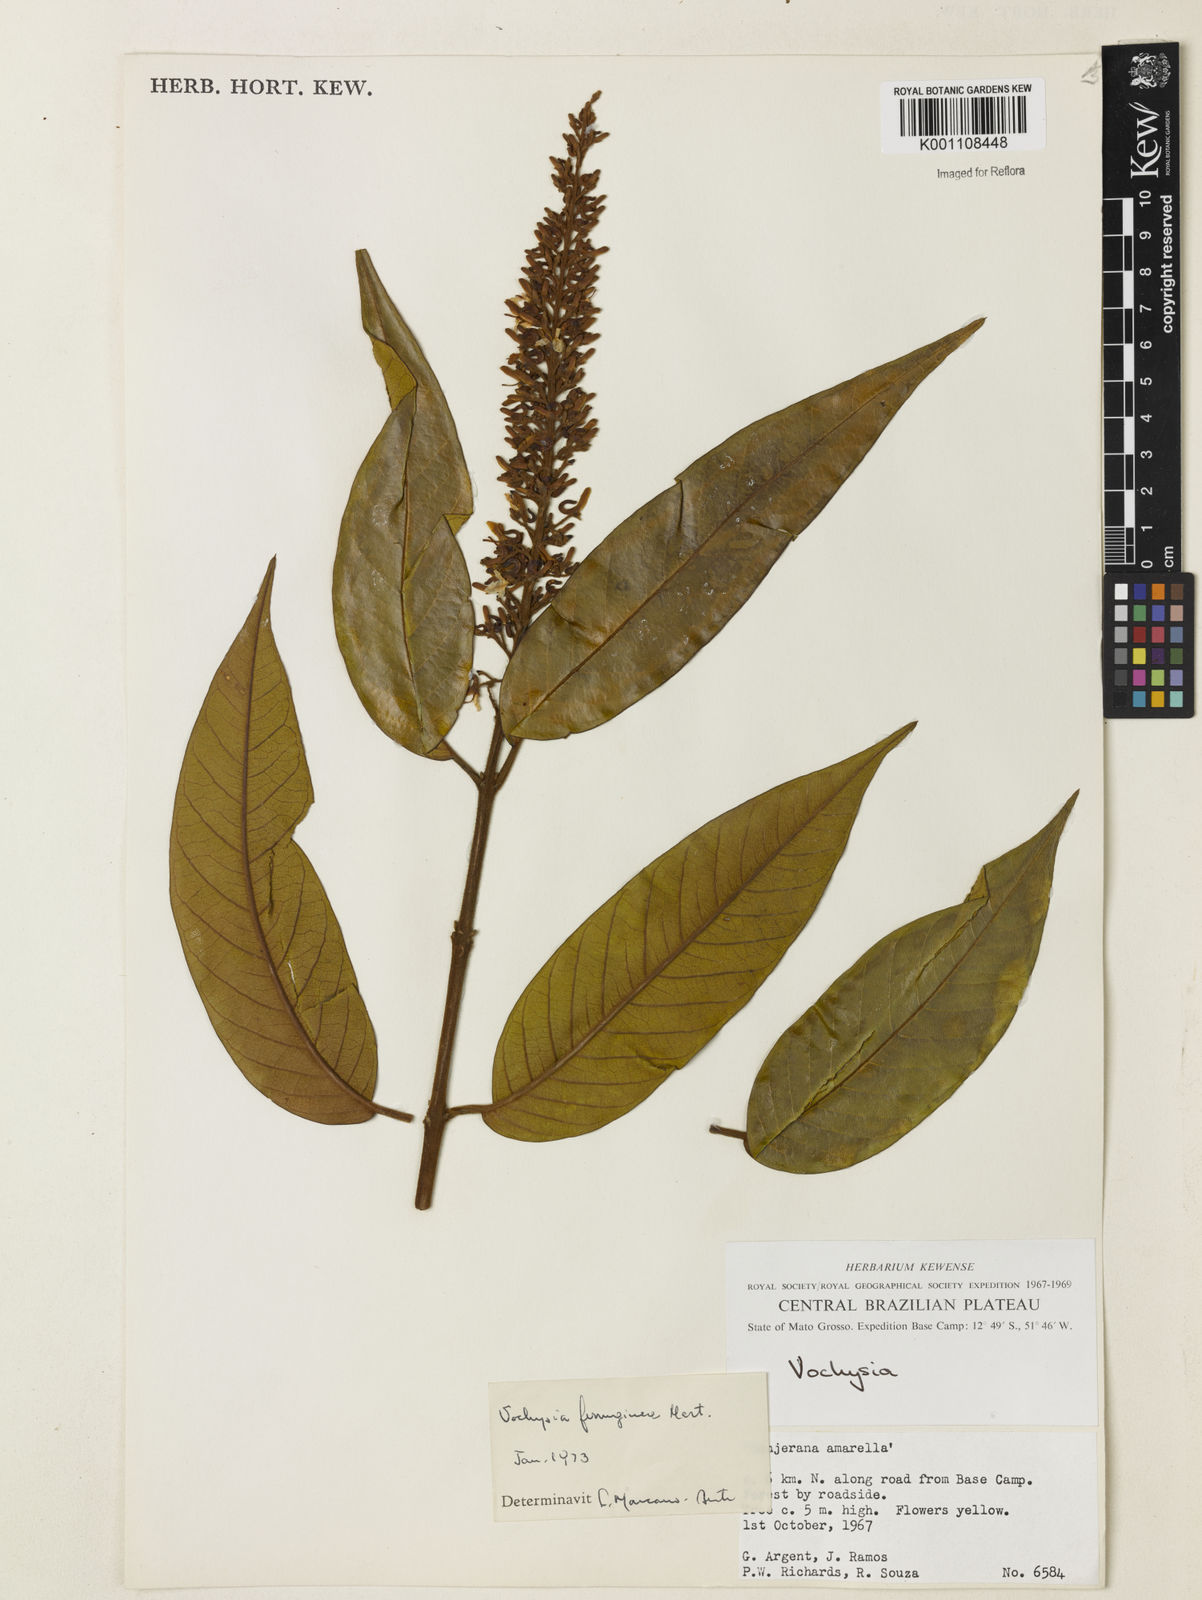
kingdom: Plantae
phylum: Tracheophyta
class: Magnoliopsida
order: Myrtales
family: Vochysiaceae
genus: Vochysia
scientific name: Vochysia ferruginea
